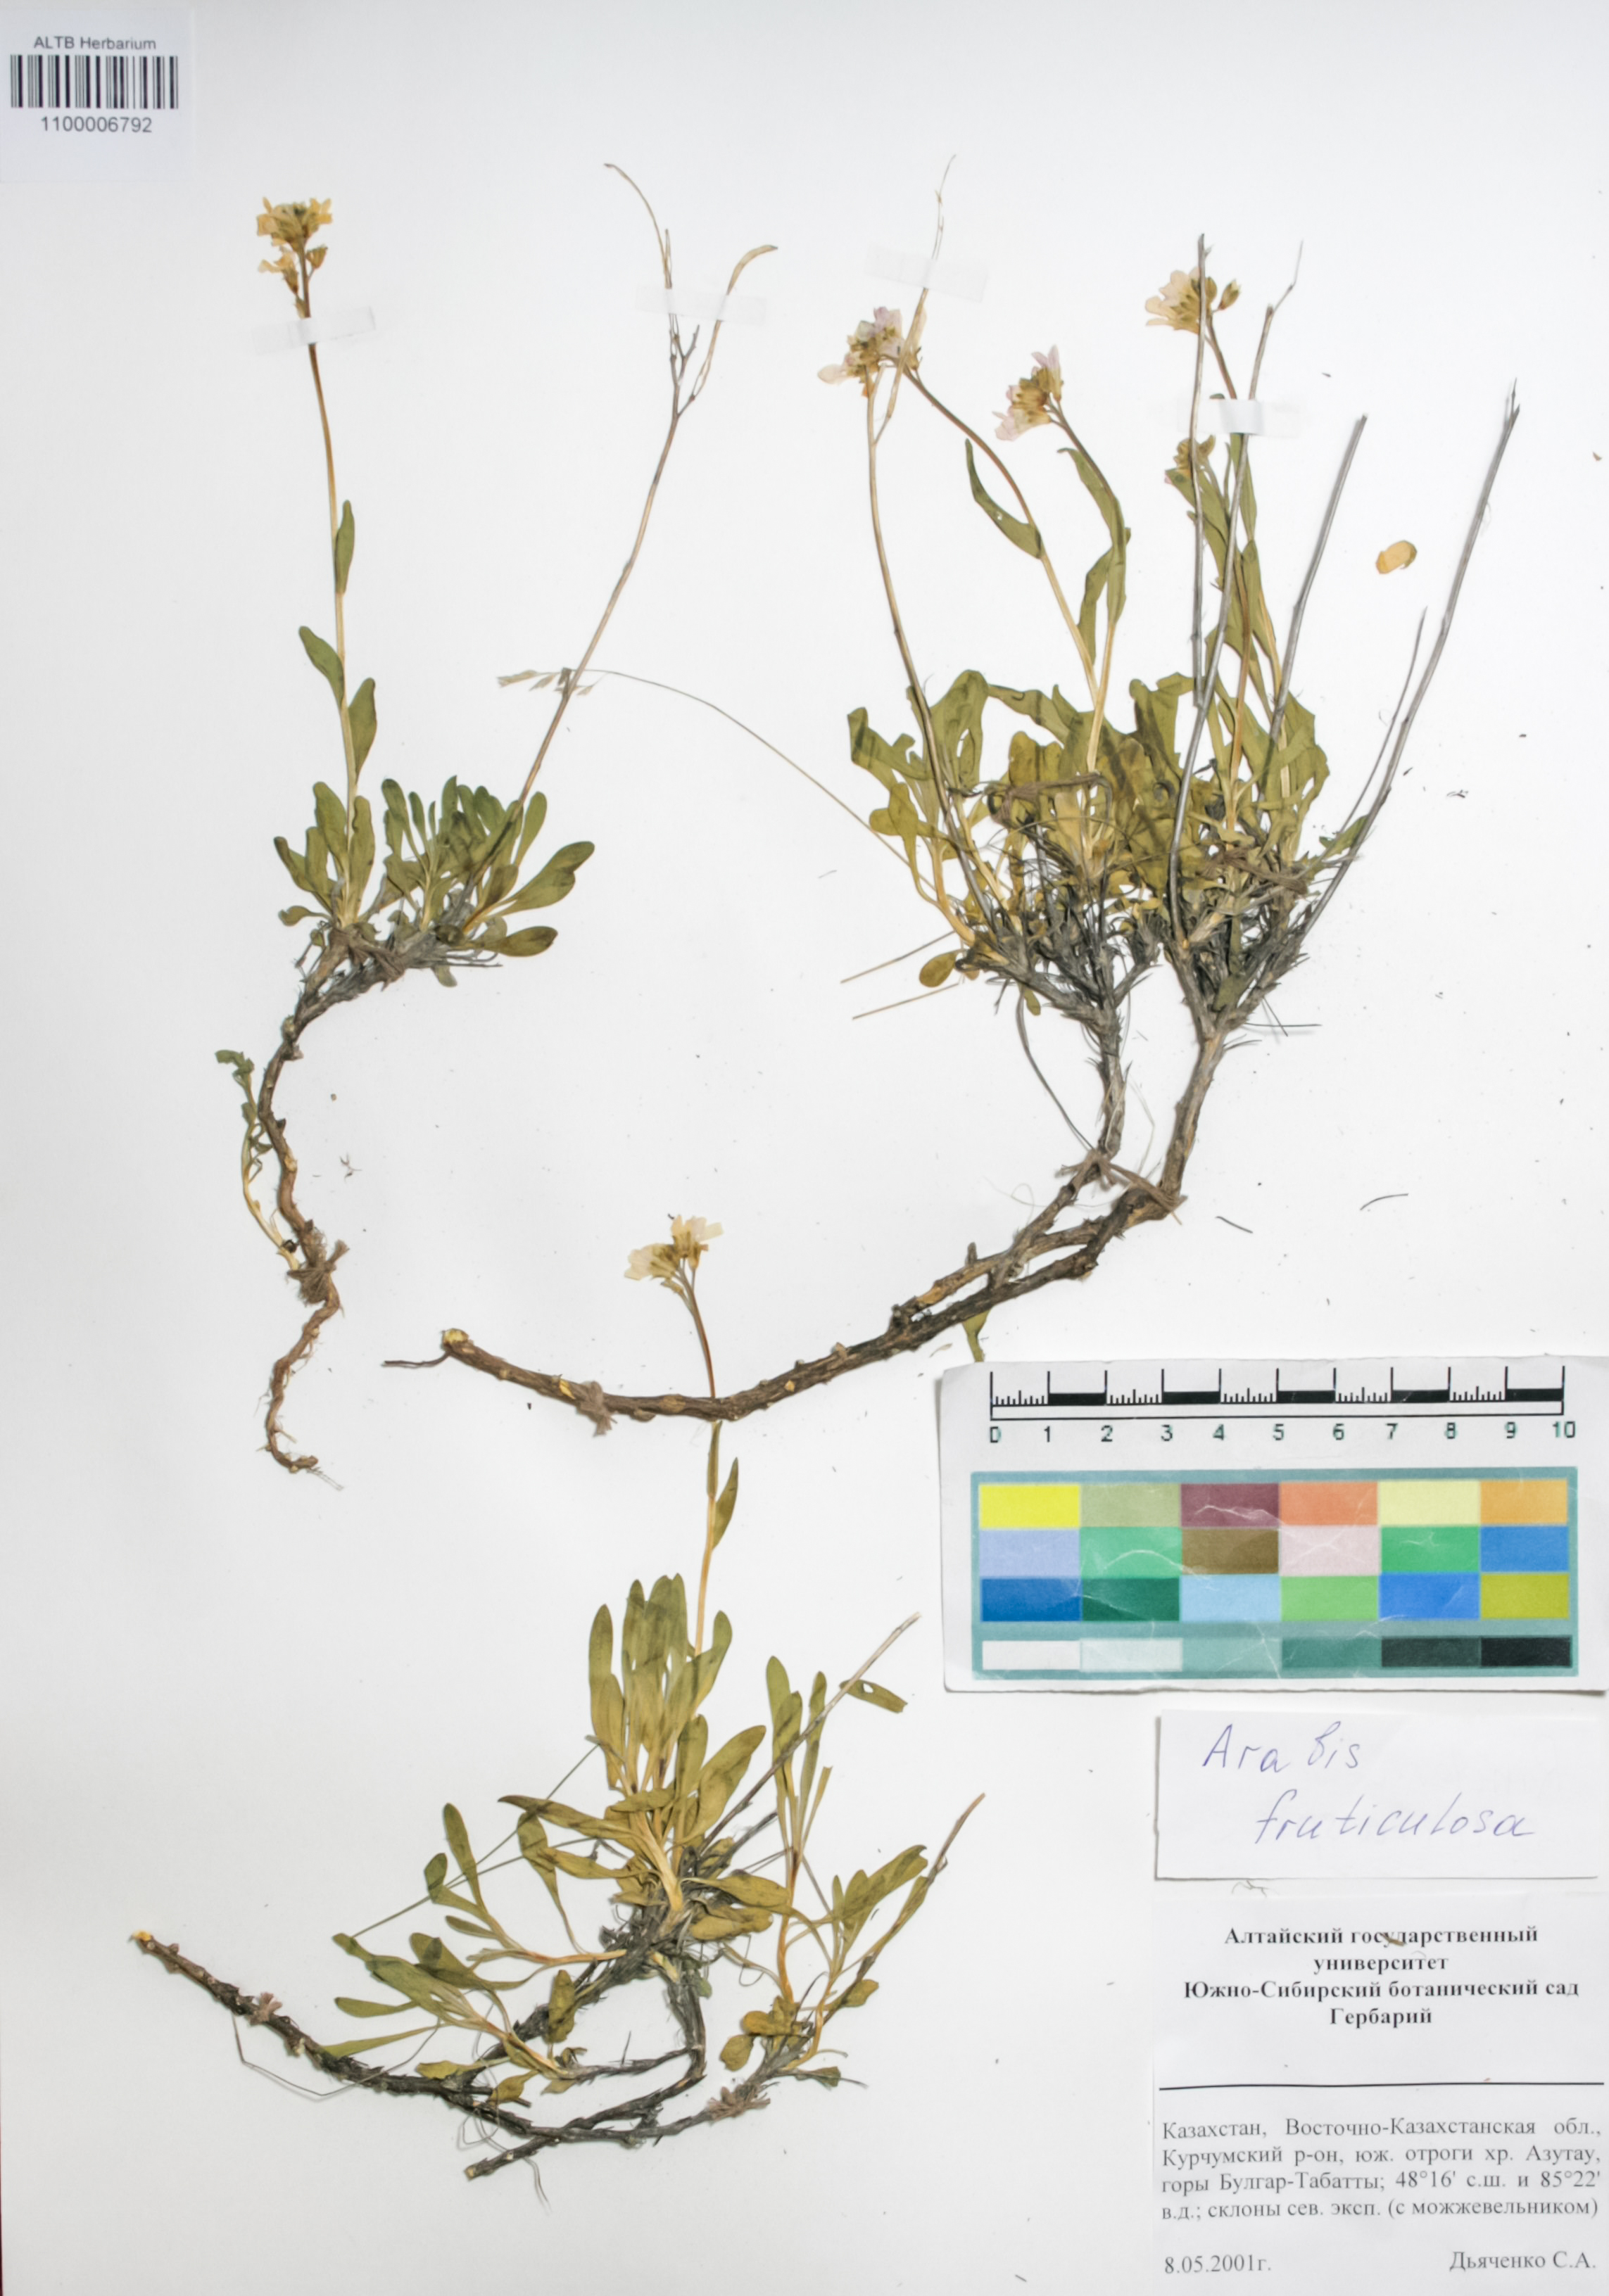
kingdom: Plantae
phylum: Tracheophyta
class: Magnoliopsida
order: Brassicales
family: Brassicaceae
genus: Dendroarabis
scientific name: Dendroarabis fruticulosa
